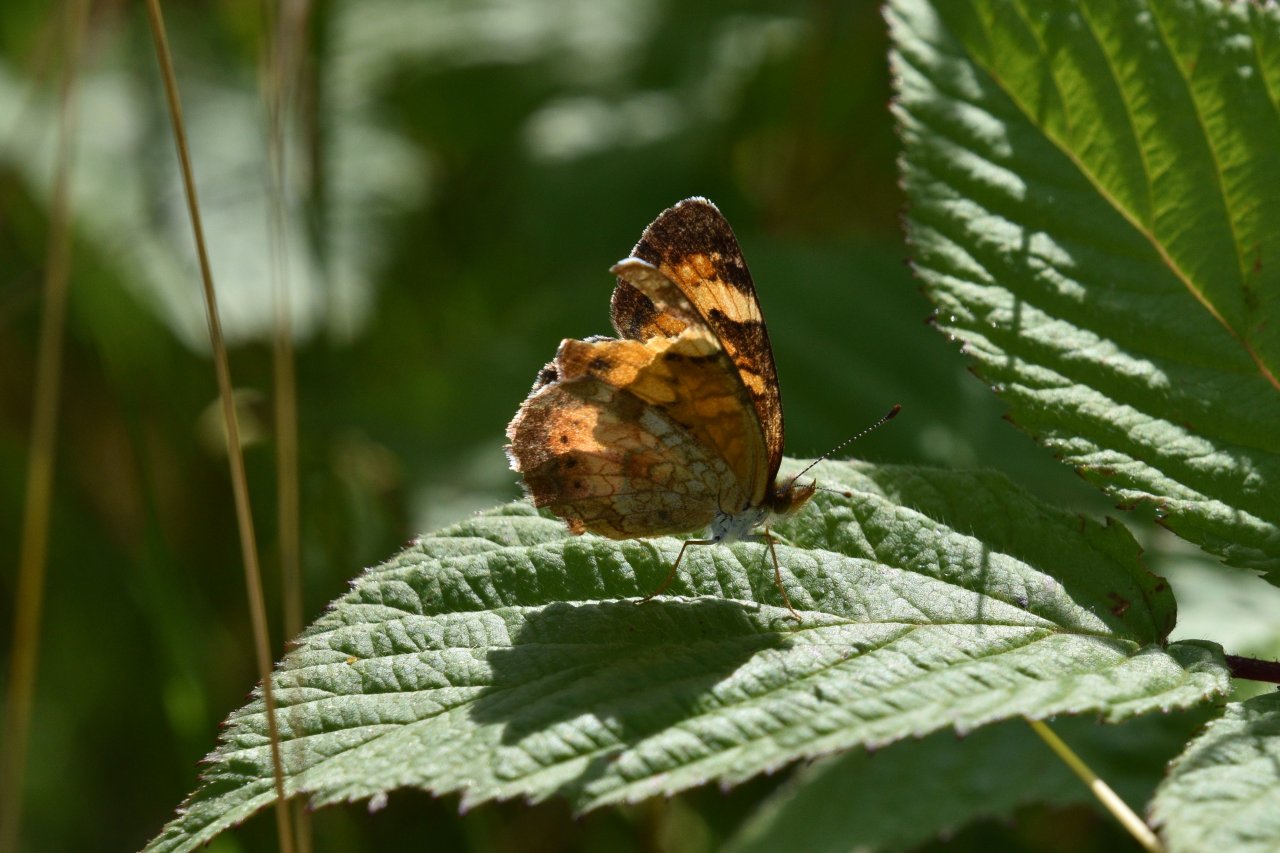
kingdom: Animalia
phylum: Arthropoda
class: Insecta
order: Lepidoptera
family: Nymphalidae
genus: Phyciodes
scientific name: Phyciodes tharos
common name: Northern Crescent
